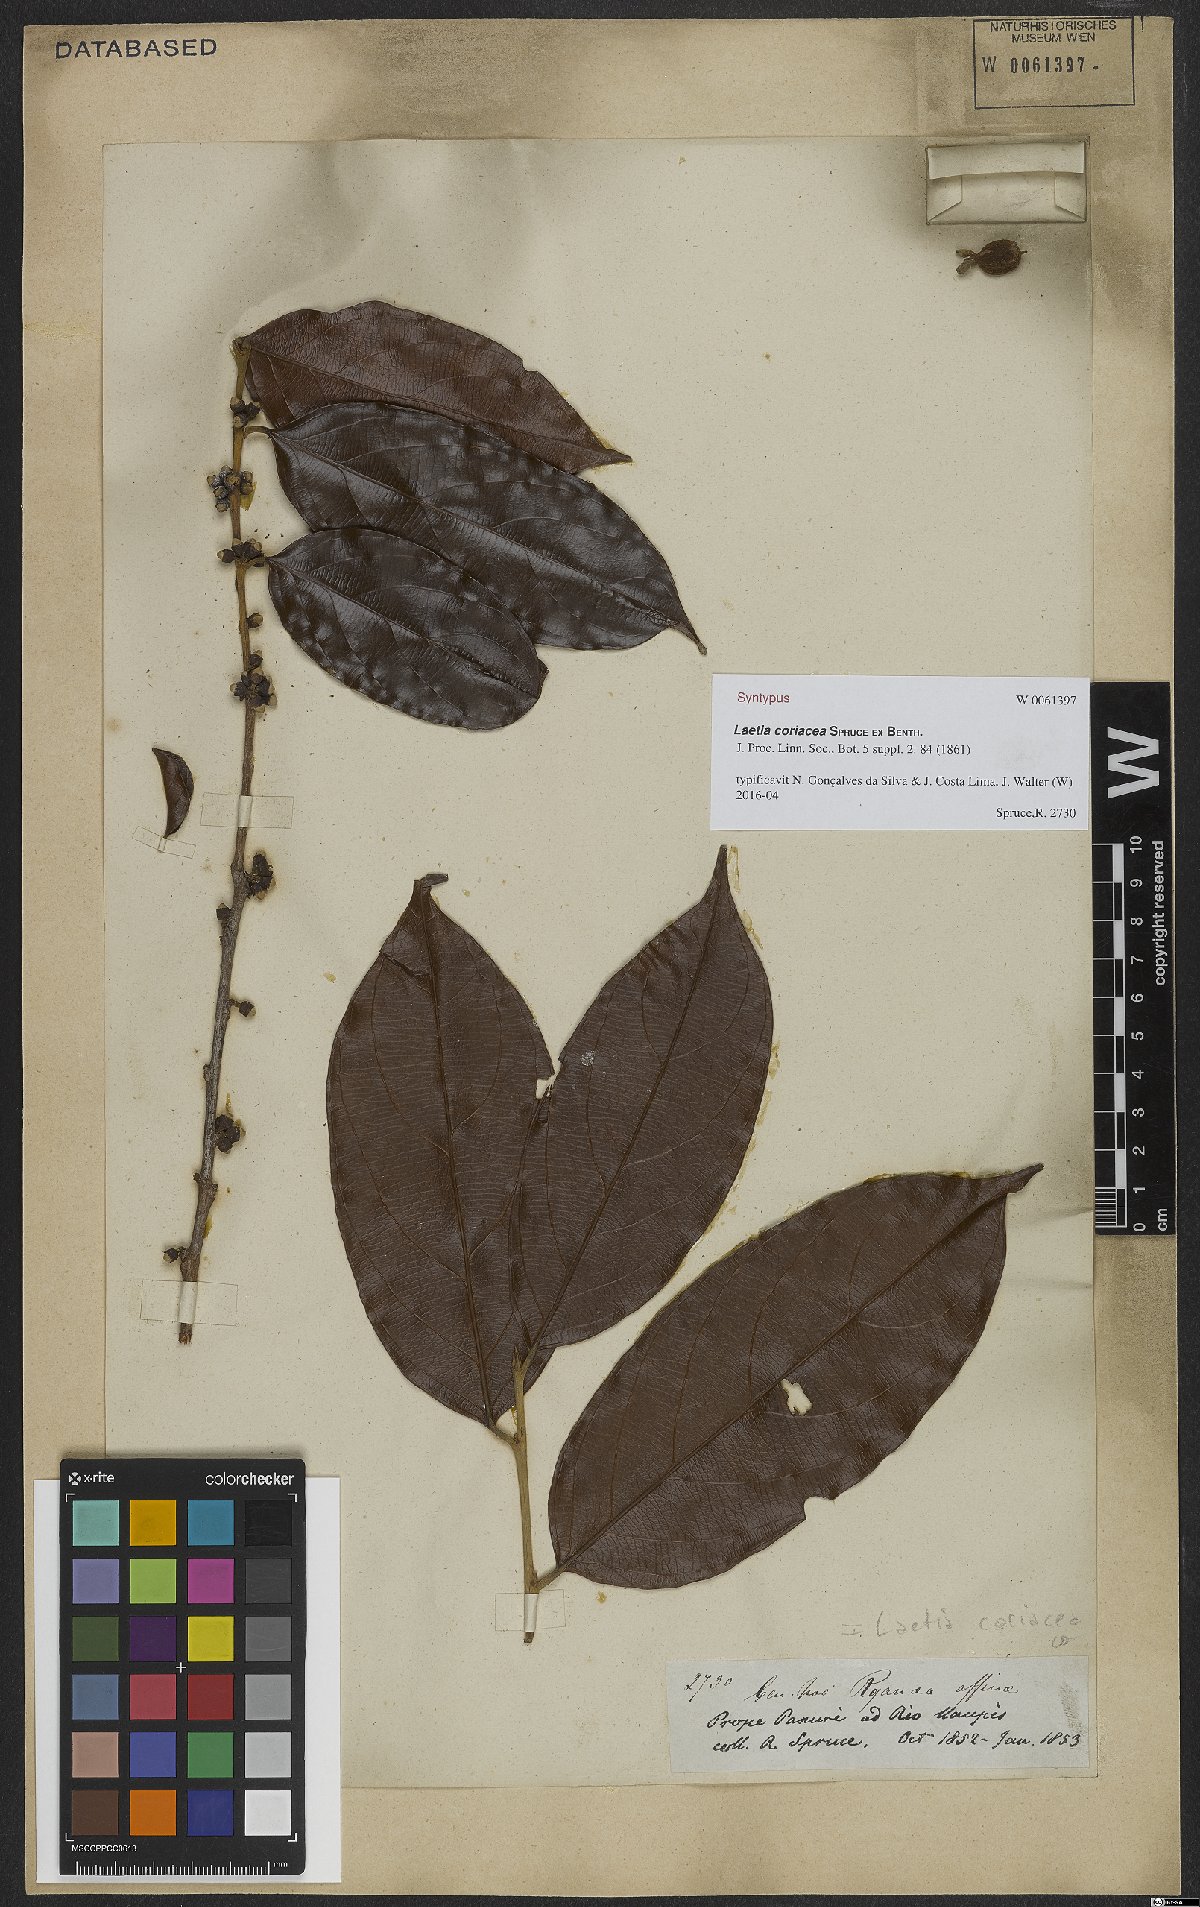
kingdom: Plantae
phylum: Tracheophyta
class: Magnoliopsida
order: Malpighiales
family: Salicaceae
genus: Irenodendron
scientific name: Irenodendron coriaceum
